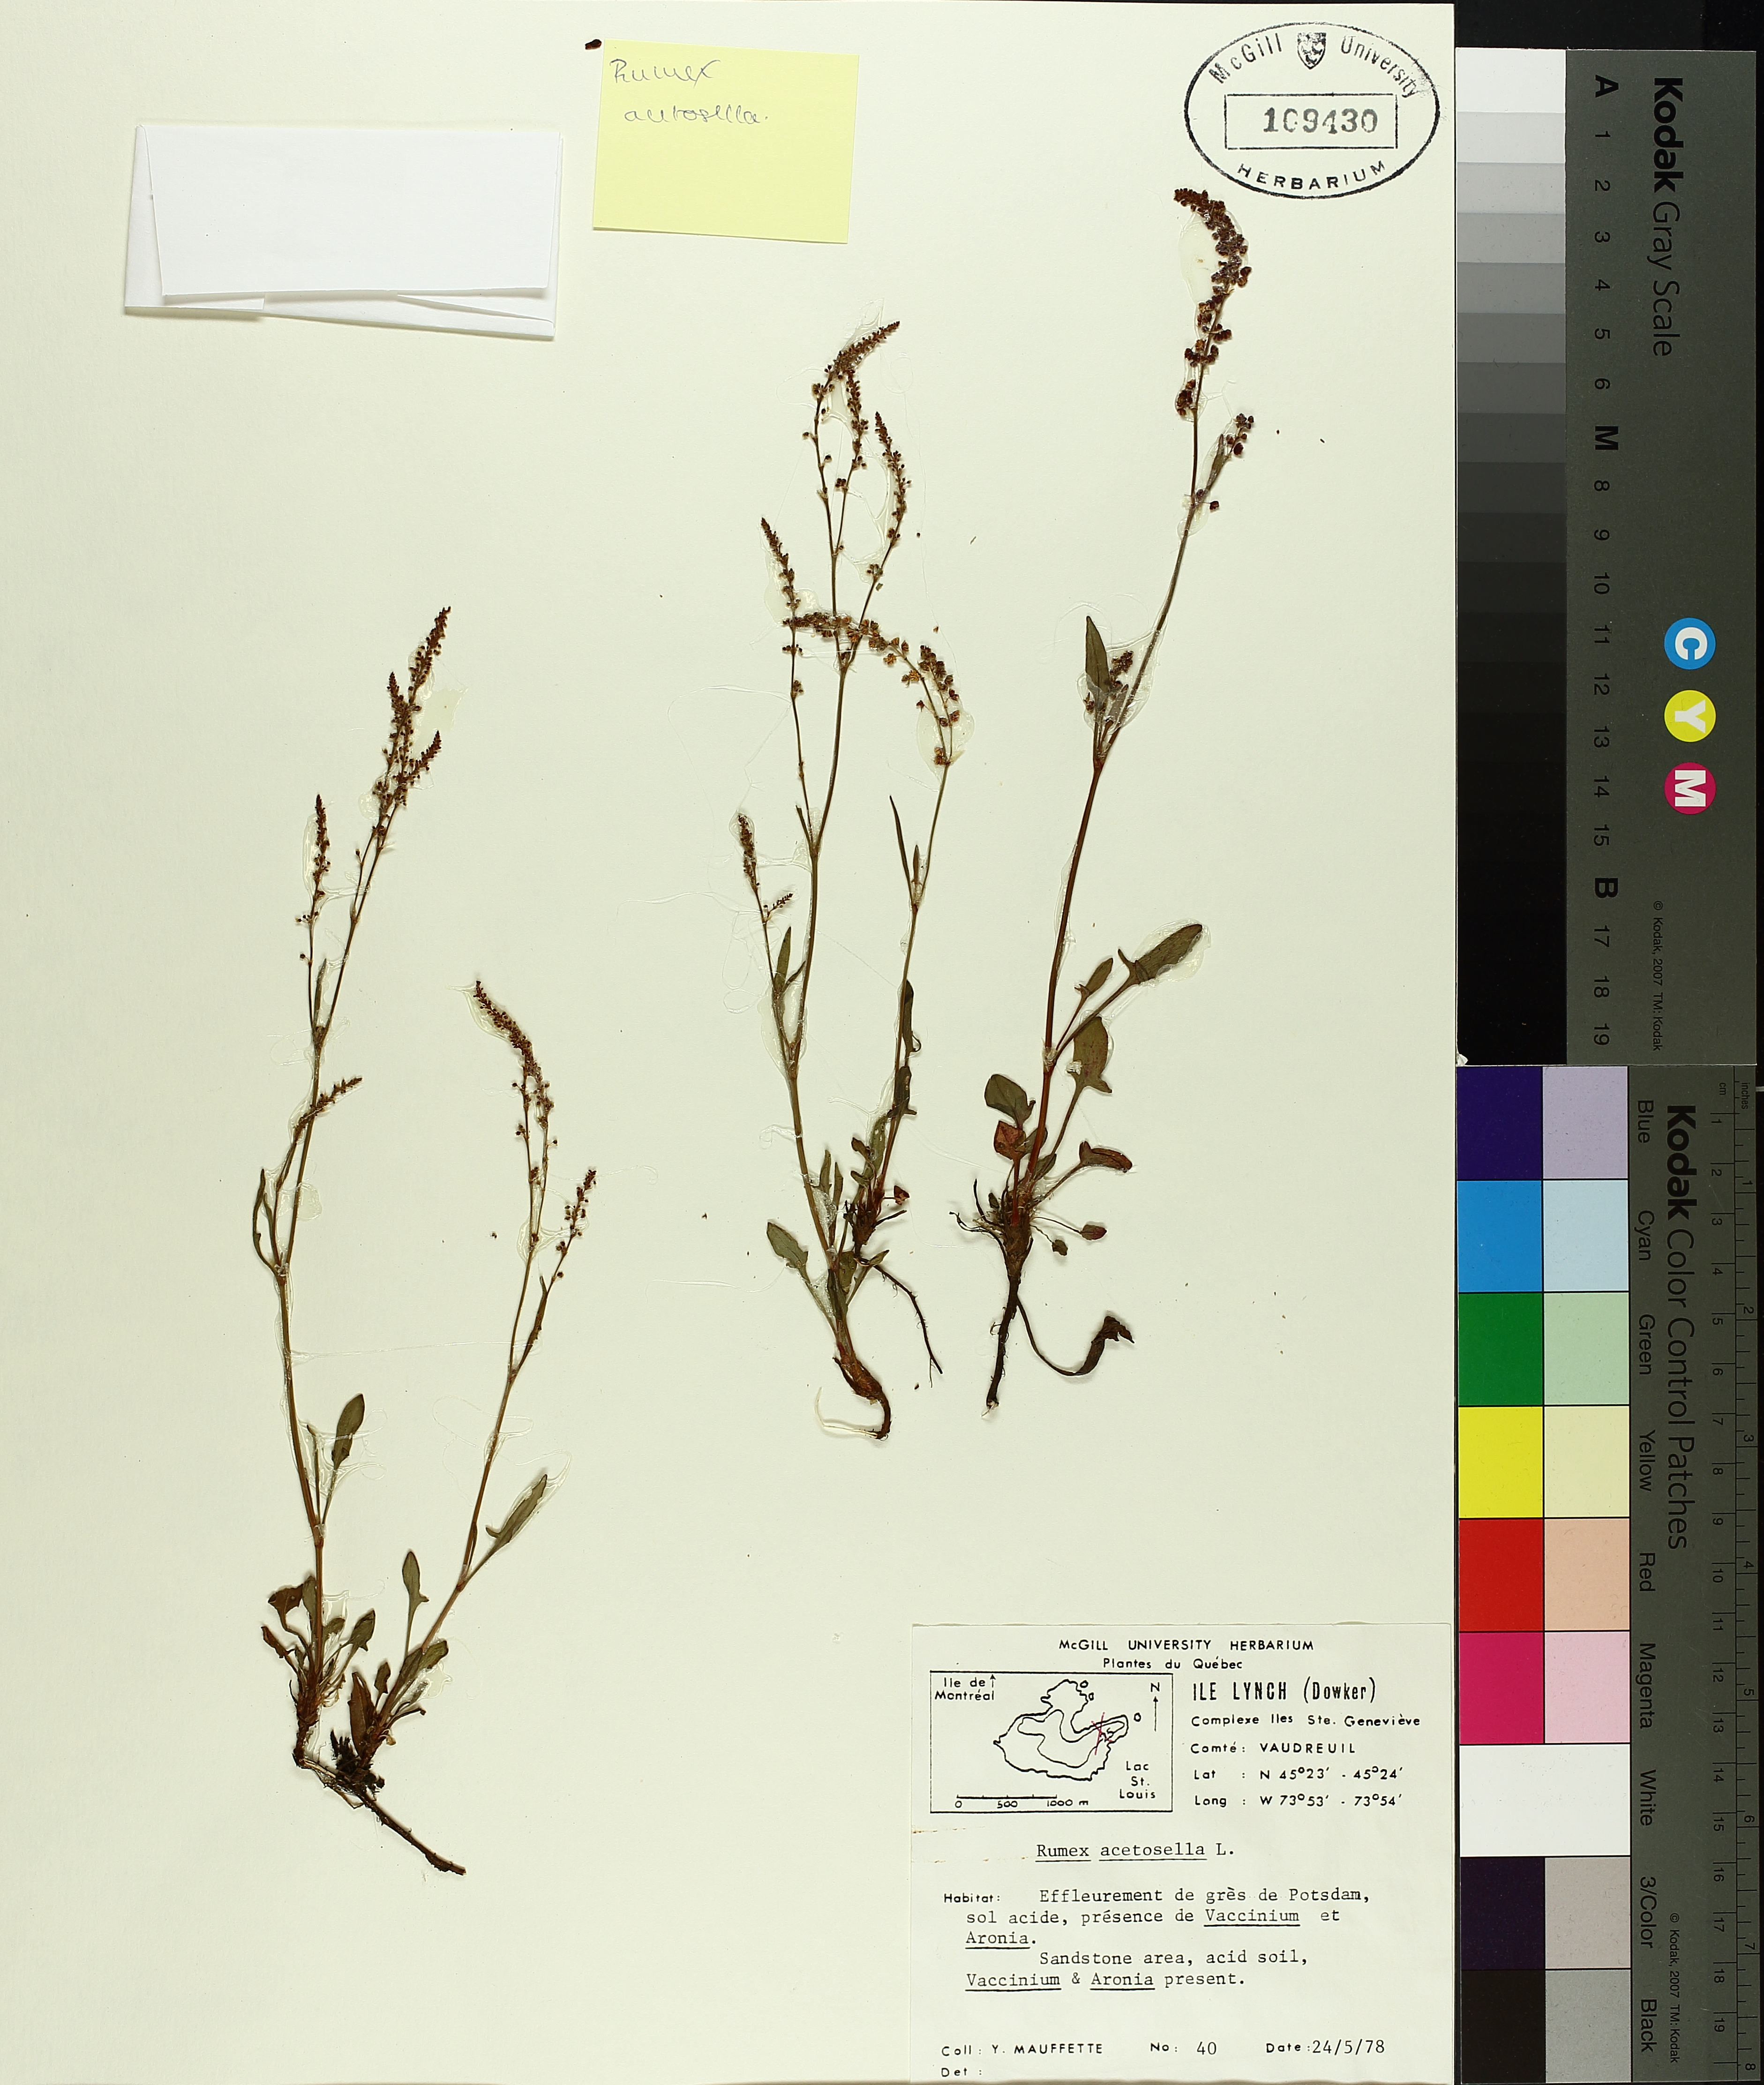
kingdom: Plantae
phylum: Tracheophyta
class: Magnoliopsida
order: Caryophyllales
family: Polygonaceae
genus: Rumex
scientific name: Rumex acetosella
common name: Common sheep sorrel
